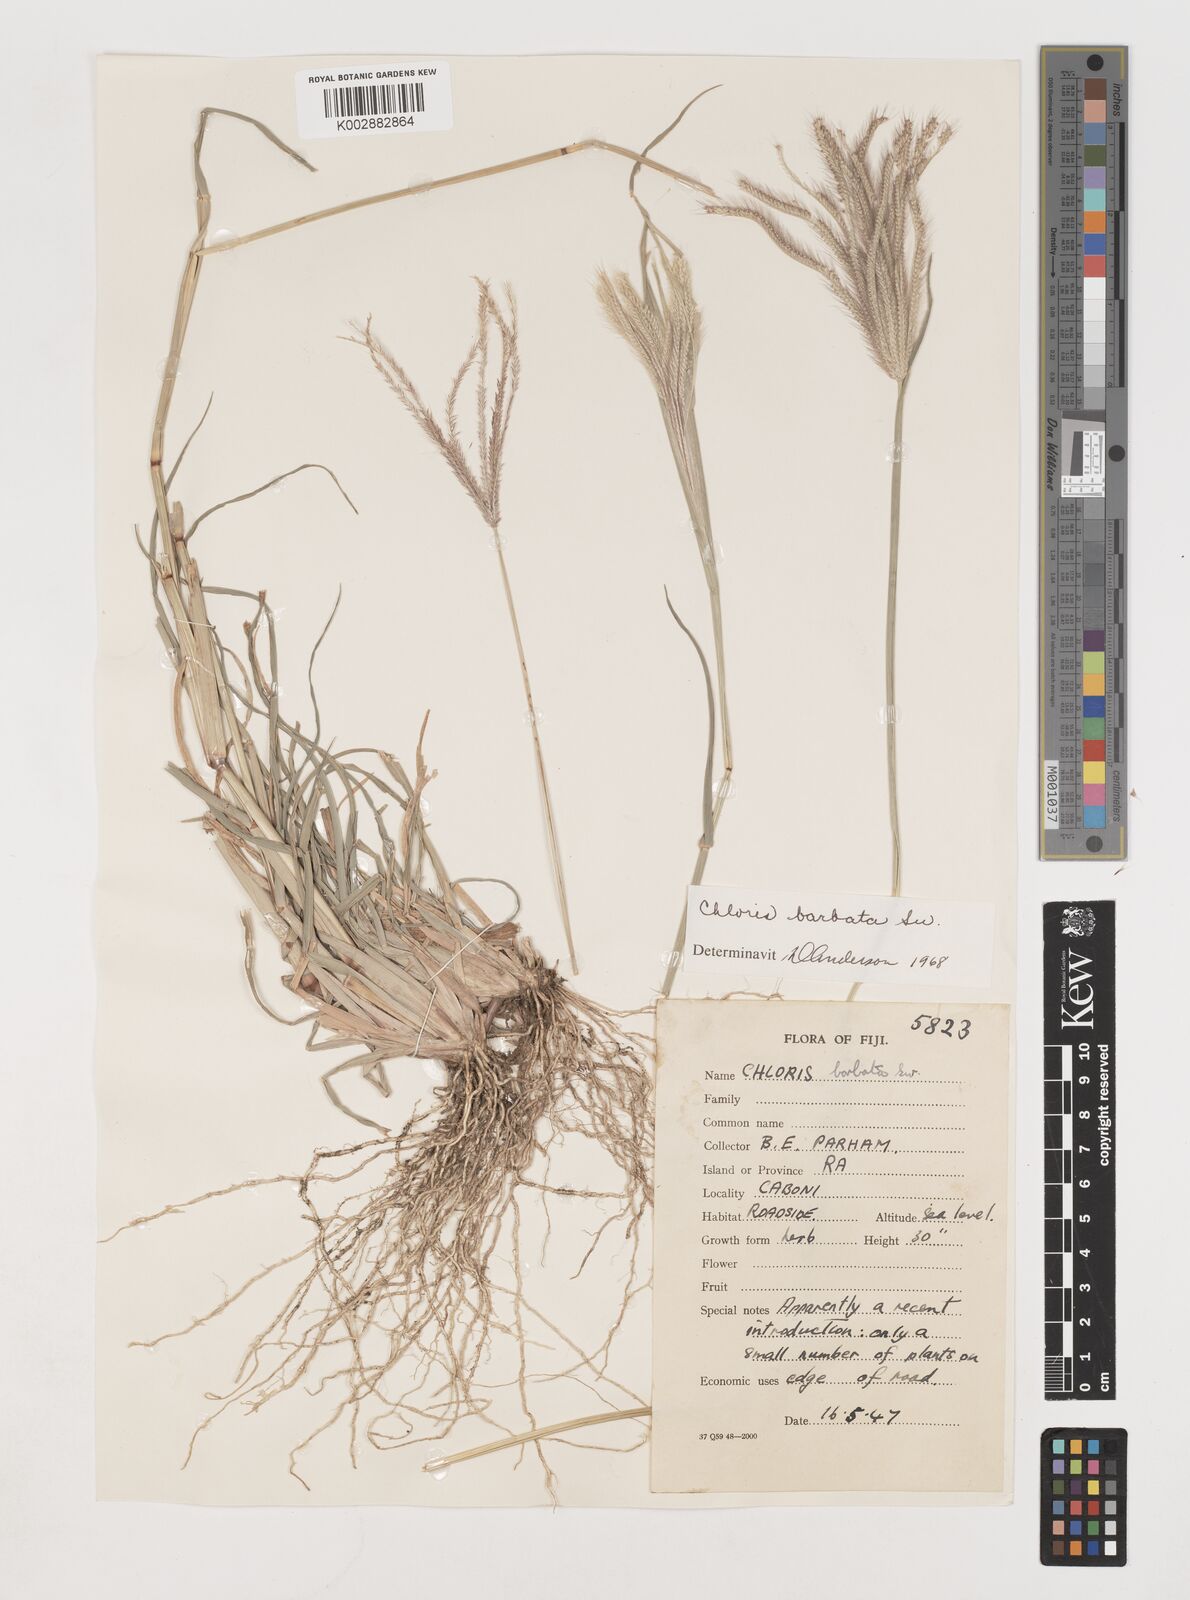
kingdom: Plantae
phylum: Tracheophyta
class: Liliopsida
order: Poales
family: Poaceae
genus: Chloris
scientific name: Chloris barbata
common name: Swollen fingergrass
